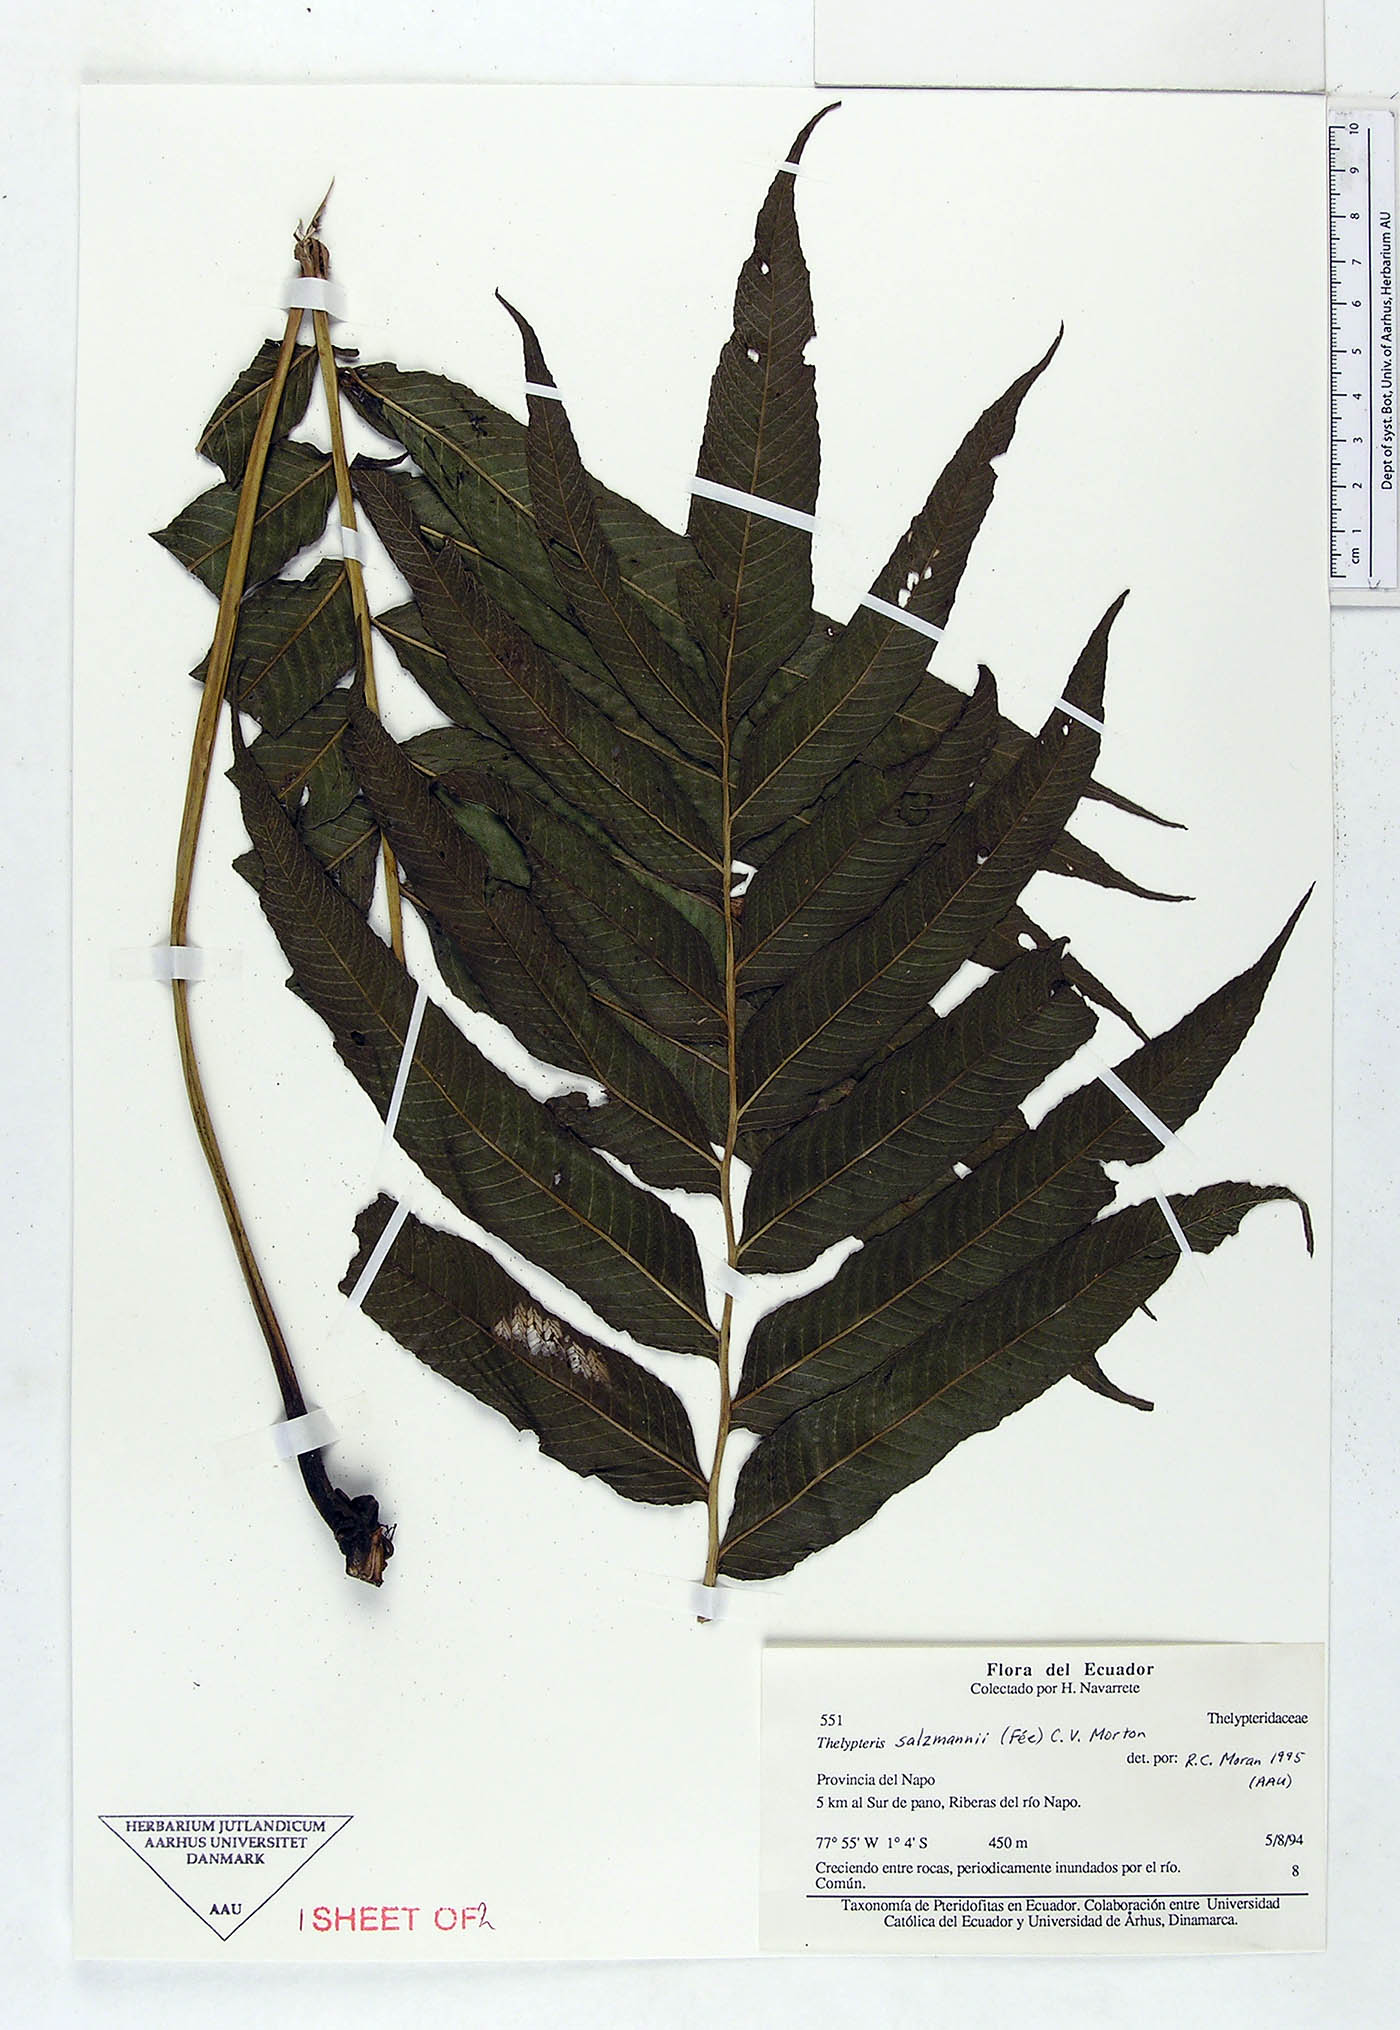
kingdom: Plantae
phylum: Tracheophyta
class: Polypodiopsida
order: Polypodiales
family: Thelypteridaceae
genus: Meniscium
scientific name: Meniscium arborescens
